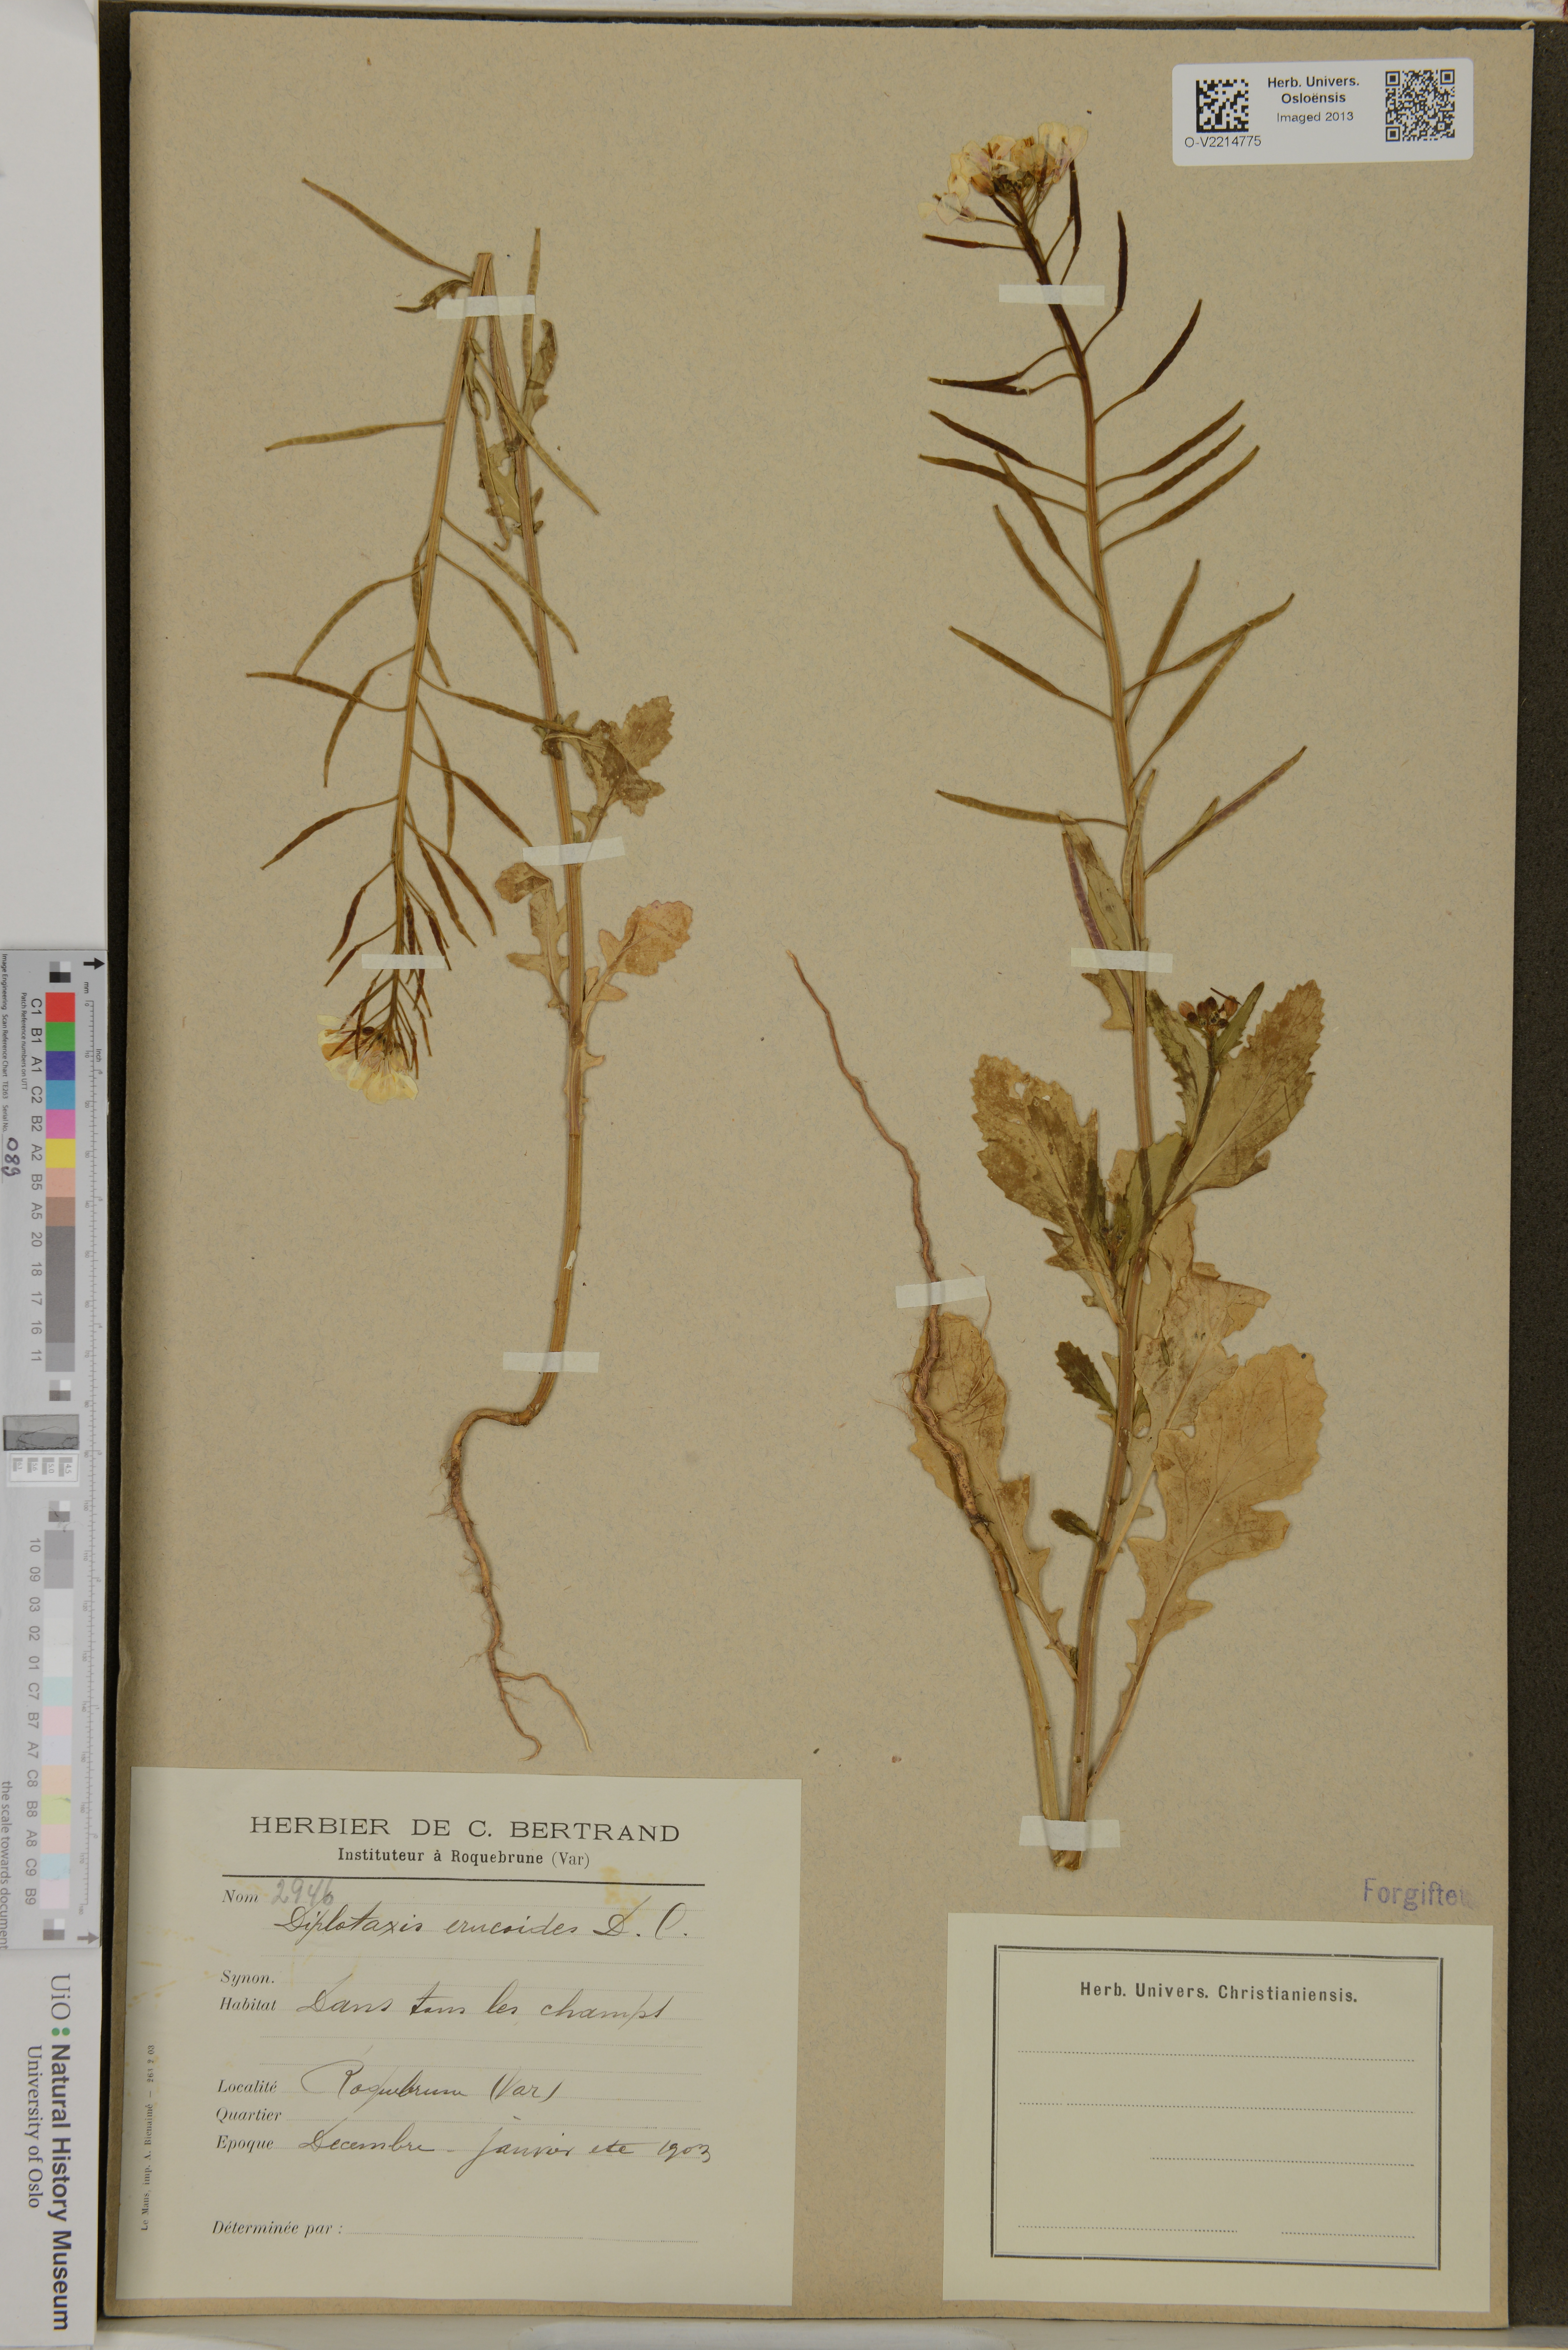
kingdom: Plantae
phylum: Tracheophyta
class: Magnoliopsida
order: Brassicales
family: Brassicaceae
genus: Diplotaxis
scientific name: Diplotaxis erucoides
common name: White rocket
